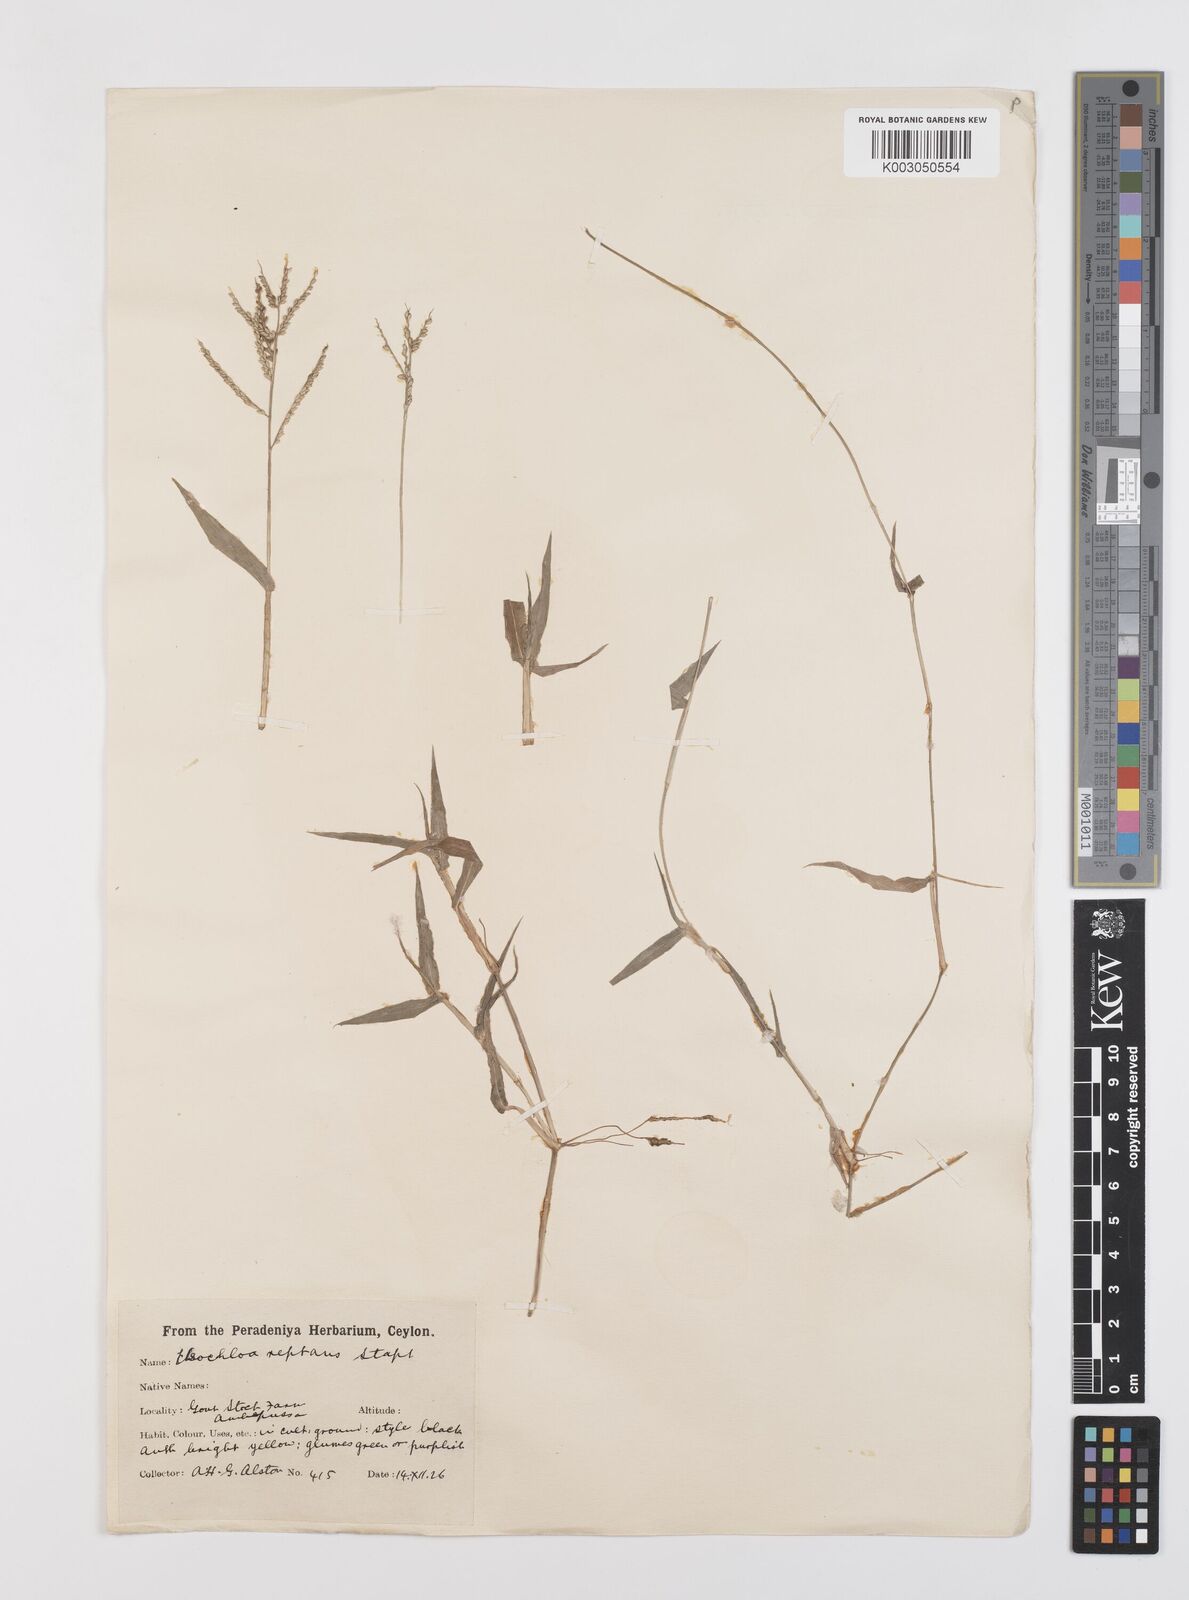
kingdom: Plantae
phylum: Tracheophyta
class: Liliopsida
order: Poales
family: Poaceae
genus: Urochloa
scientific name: Urochloa reptans
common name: Sprawling signalgrass
